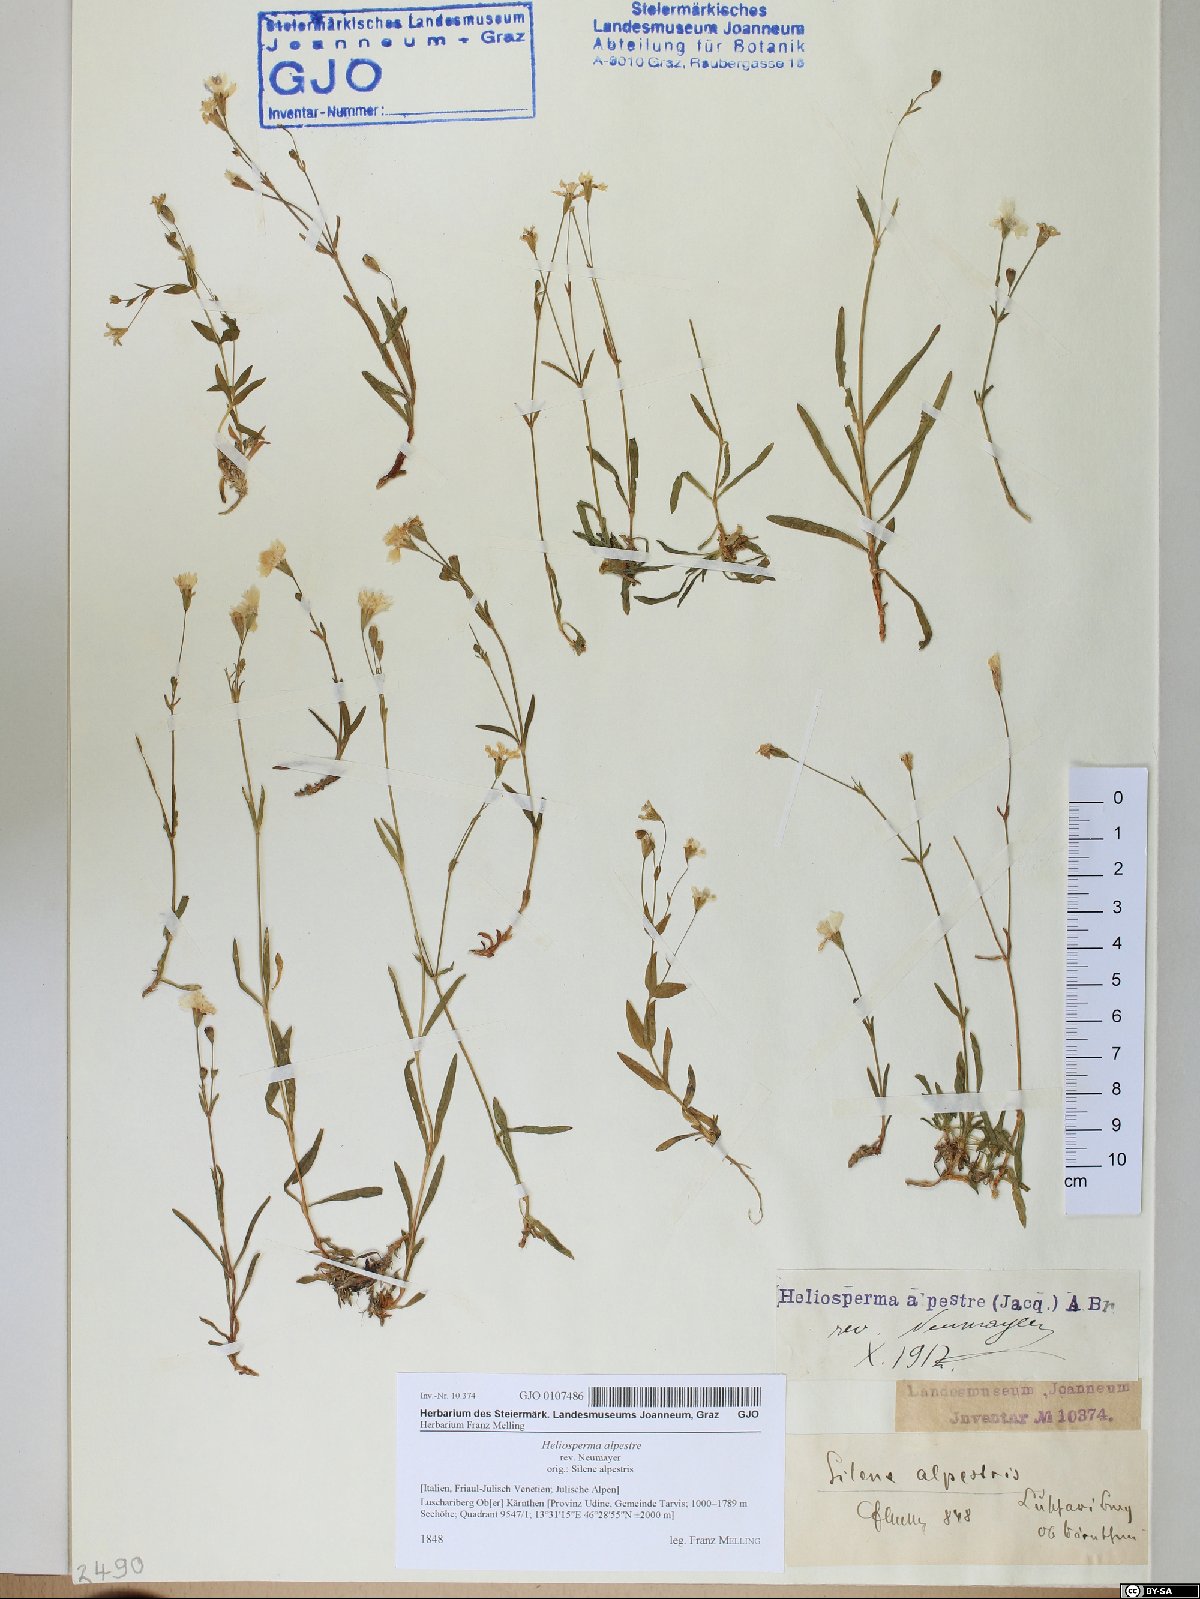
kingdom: Plantae
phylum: Tracheophyta
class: Magnoliopsida
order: Caryophyllales
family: Caryophyllaceae
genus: Heliosperma
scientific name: Heliosperma alpestre
